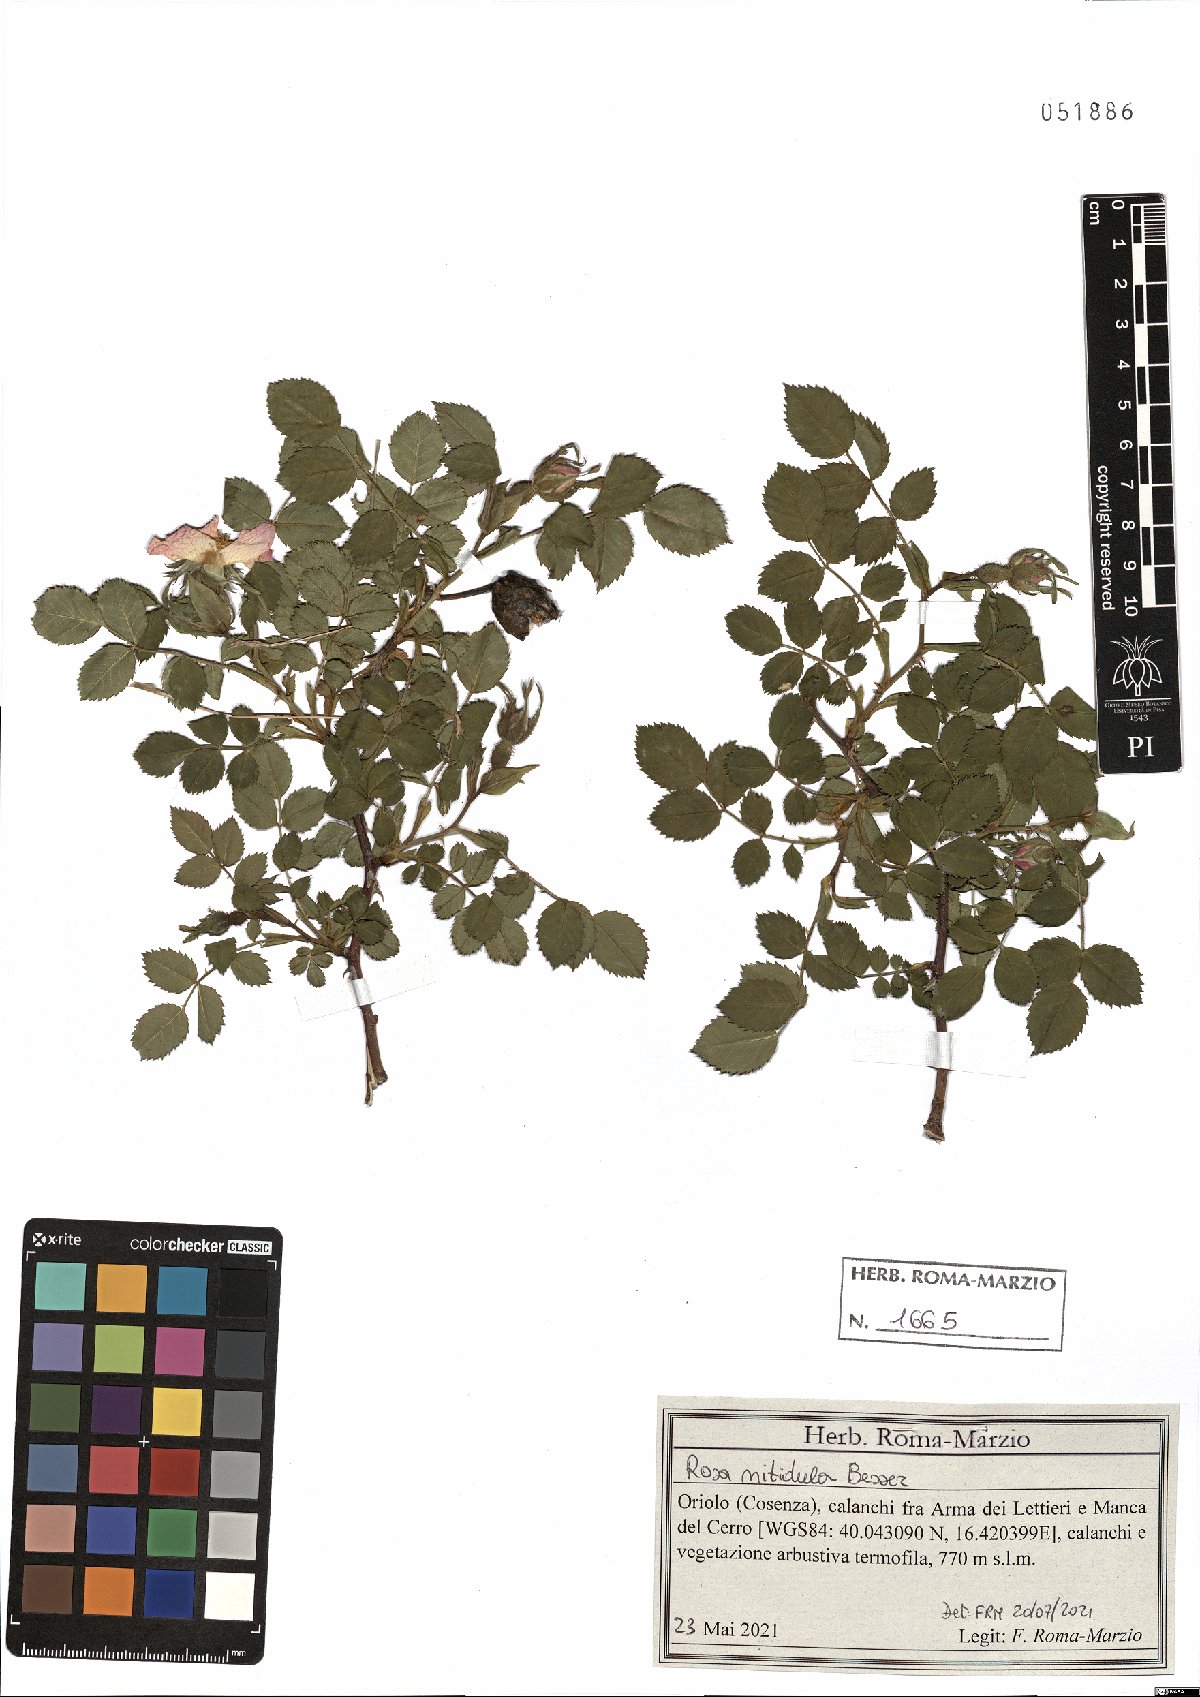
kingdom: Plantae
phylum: Tracheophyta
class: Magnoliopsida
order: Rosales
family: Rosaceae
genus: Rosa
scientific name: Rosa canina
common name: Dog rose
